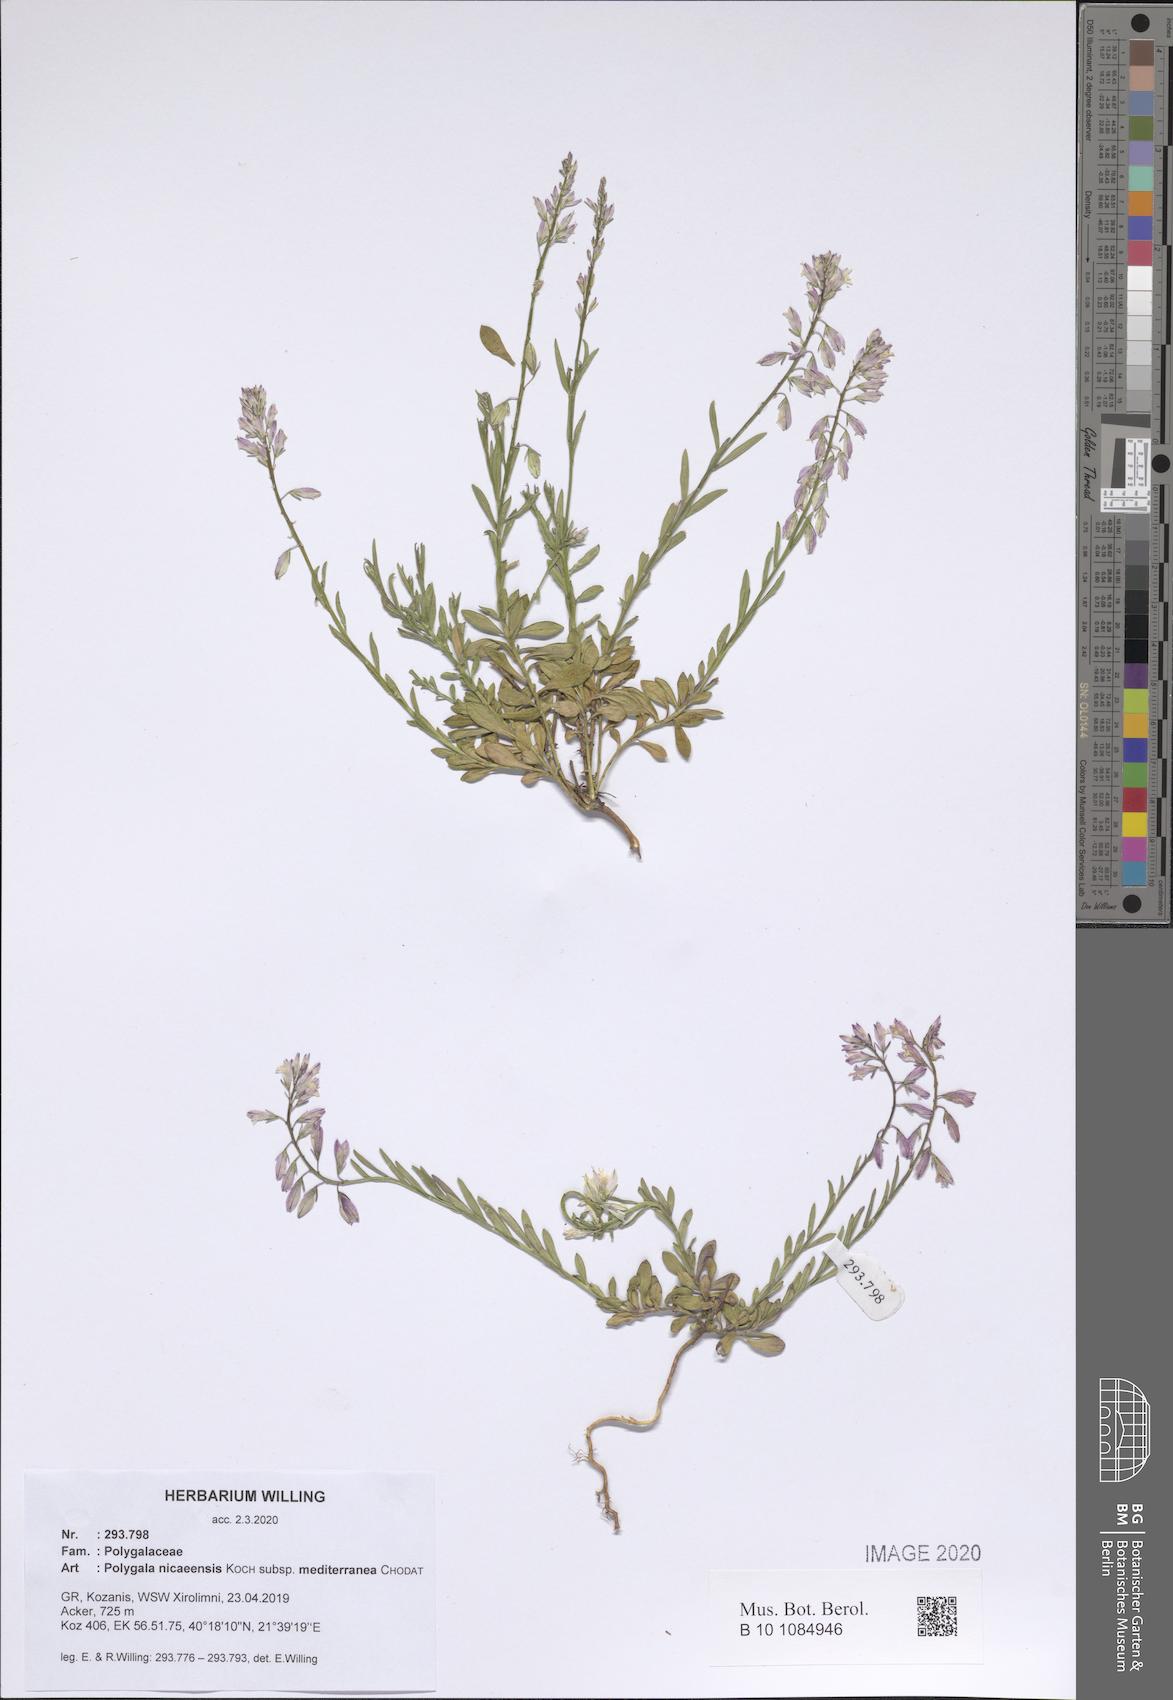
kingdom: Plantae
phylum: Tracheophyta
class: Magnoliopsida
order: Fabales
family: Polygalaceae
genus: Polygala
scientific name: Polygala nicaeensis
